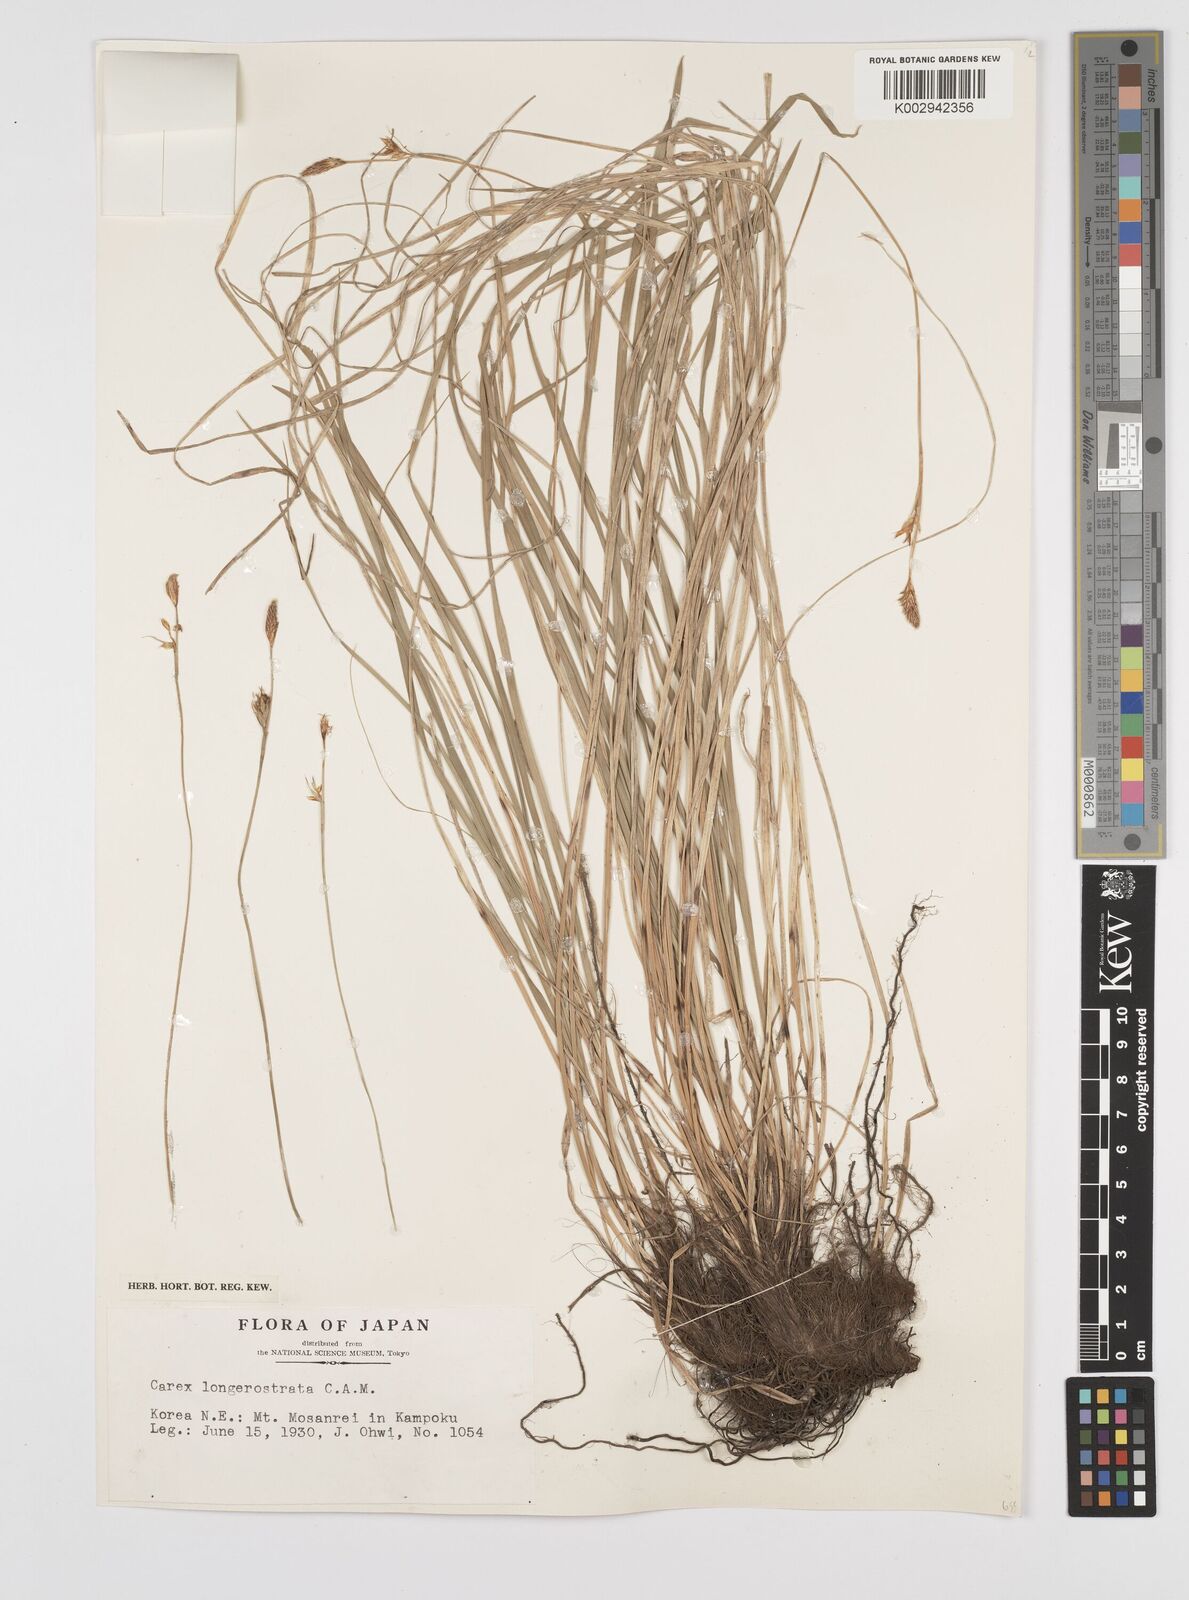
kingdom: Plantae
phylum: Tracheophyta
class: Liliopsida
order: Poales
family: Cyperaceae
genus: Carex
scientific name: Carex longerostrata
